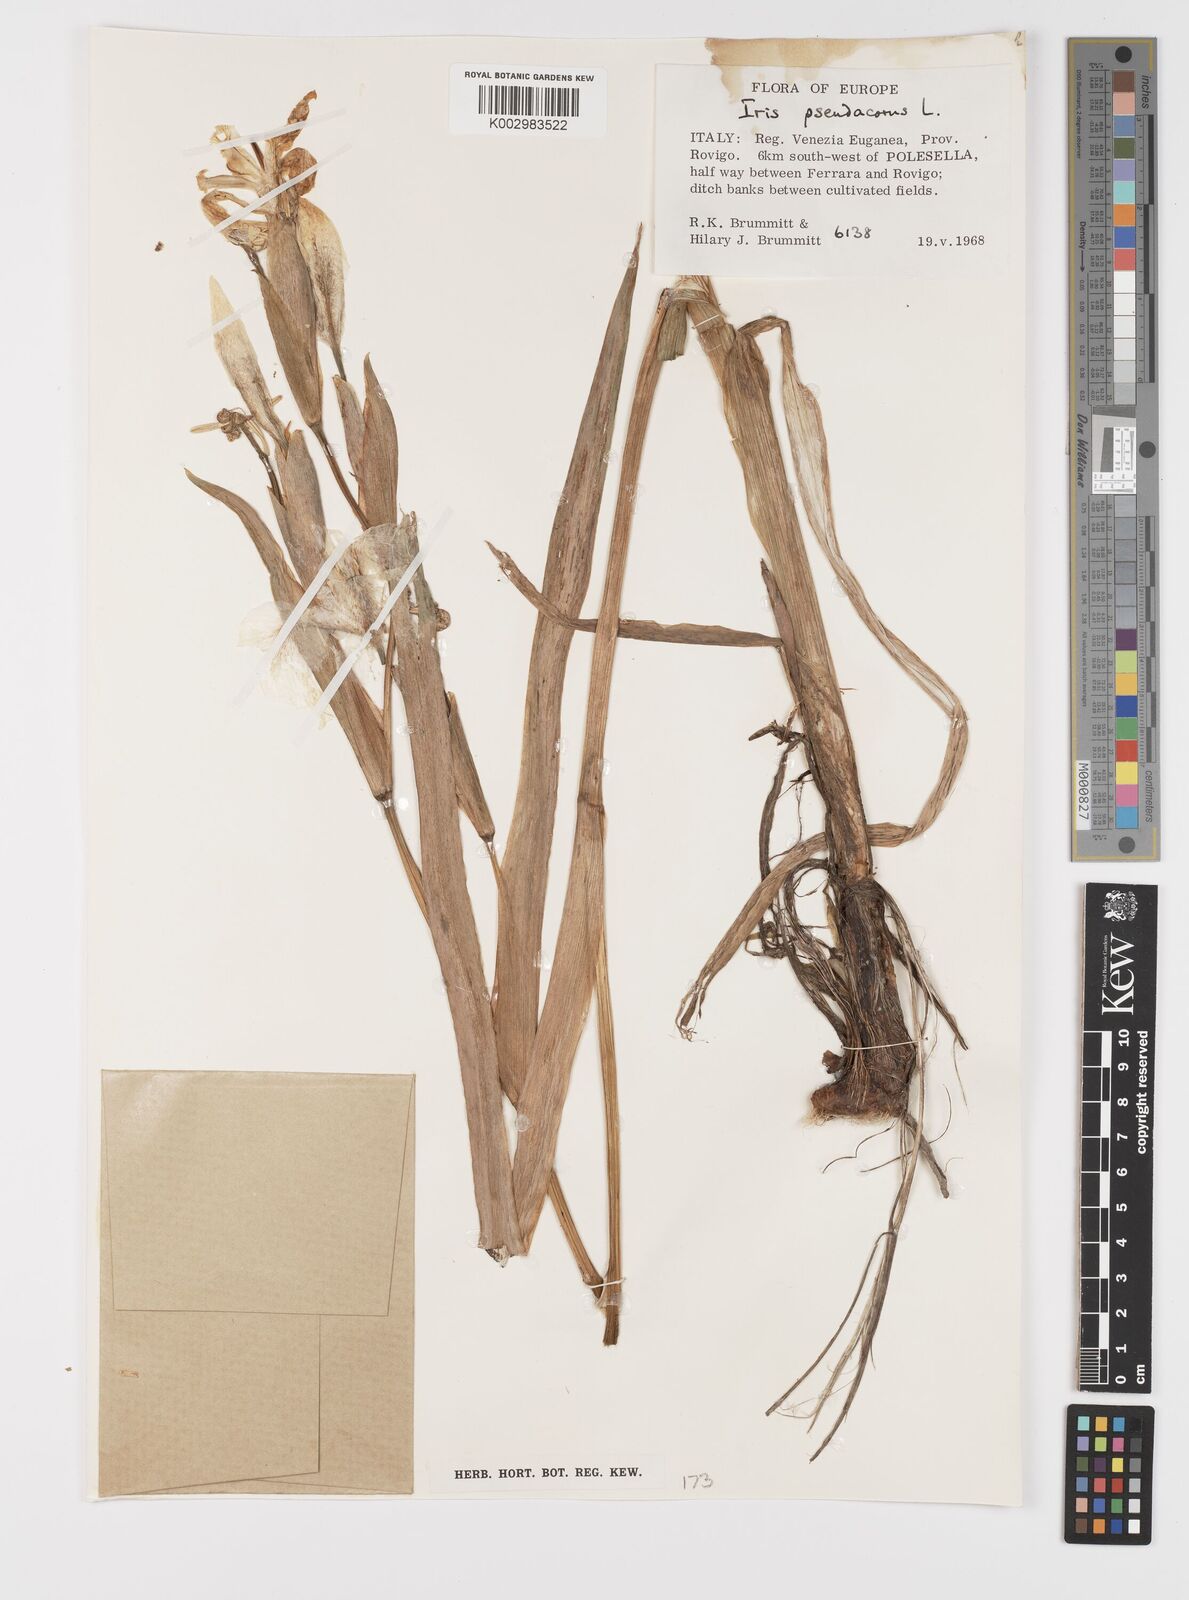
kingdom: Plantae
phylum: Tracheophyta
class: Liliopsida
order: Asparagales
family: Iridaceae
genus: Iris
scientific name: Iris pseudacorus
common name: Yellow flag
